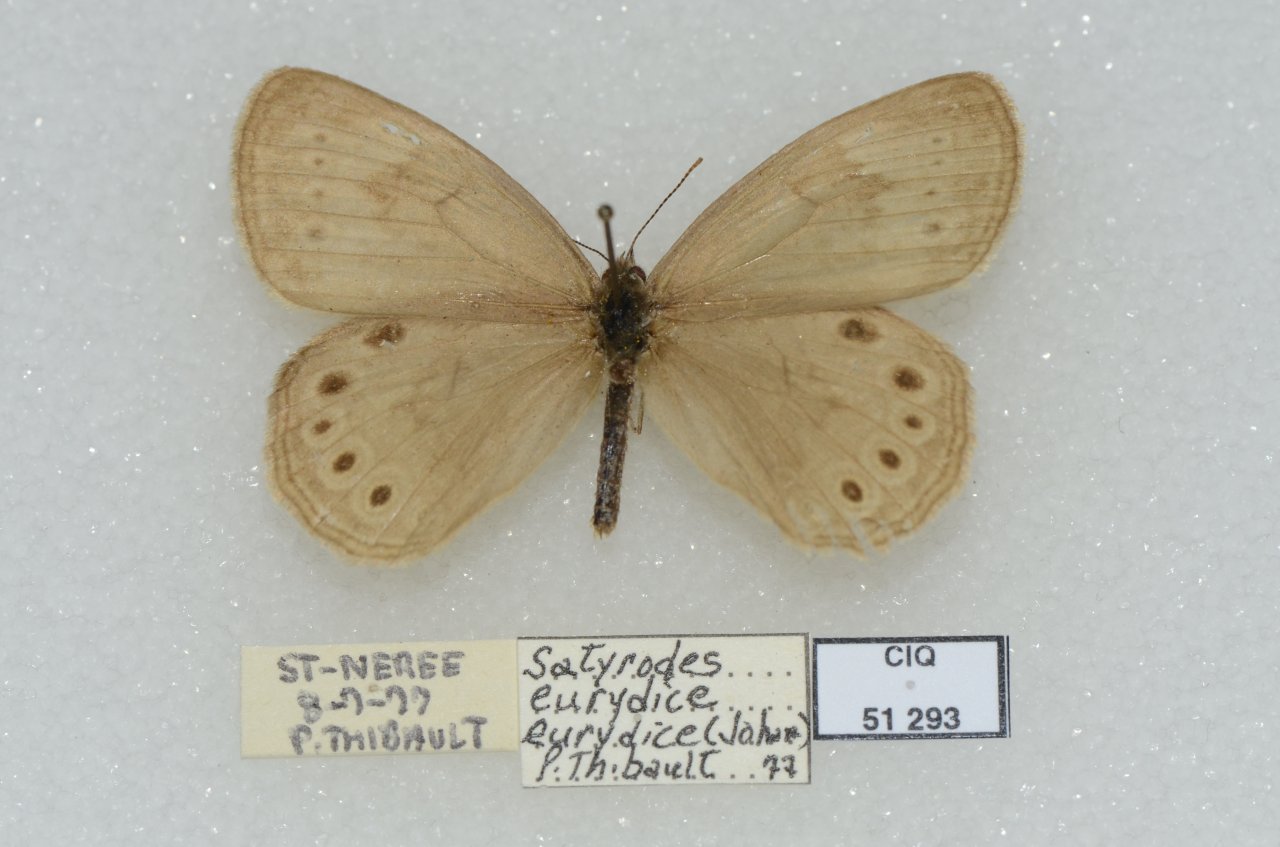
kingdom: Animalia
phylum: Arthropoda
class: Insecta
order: Lepidoptera
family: Nymphalidae
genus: Lethe
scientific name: Lethe eurydice
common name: Eyed Brown
